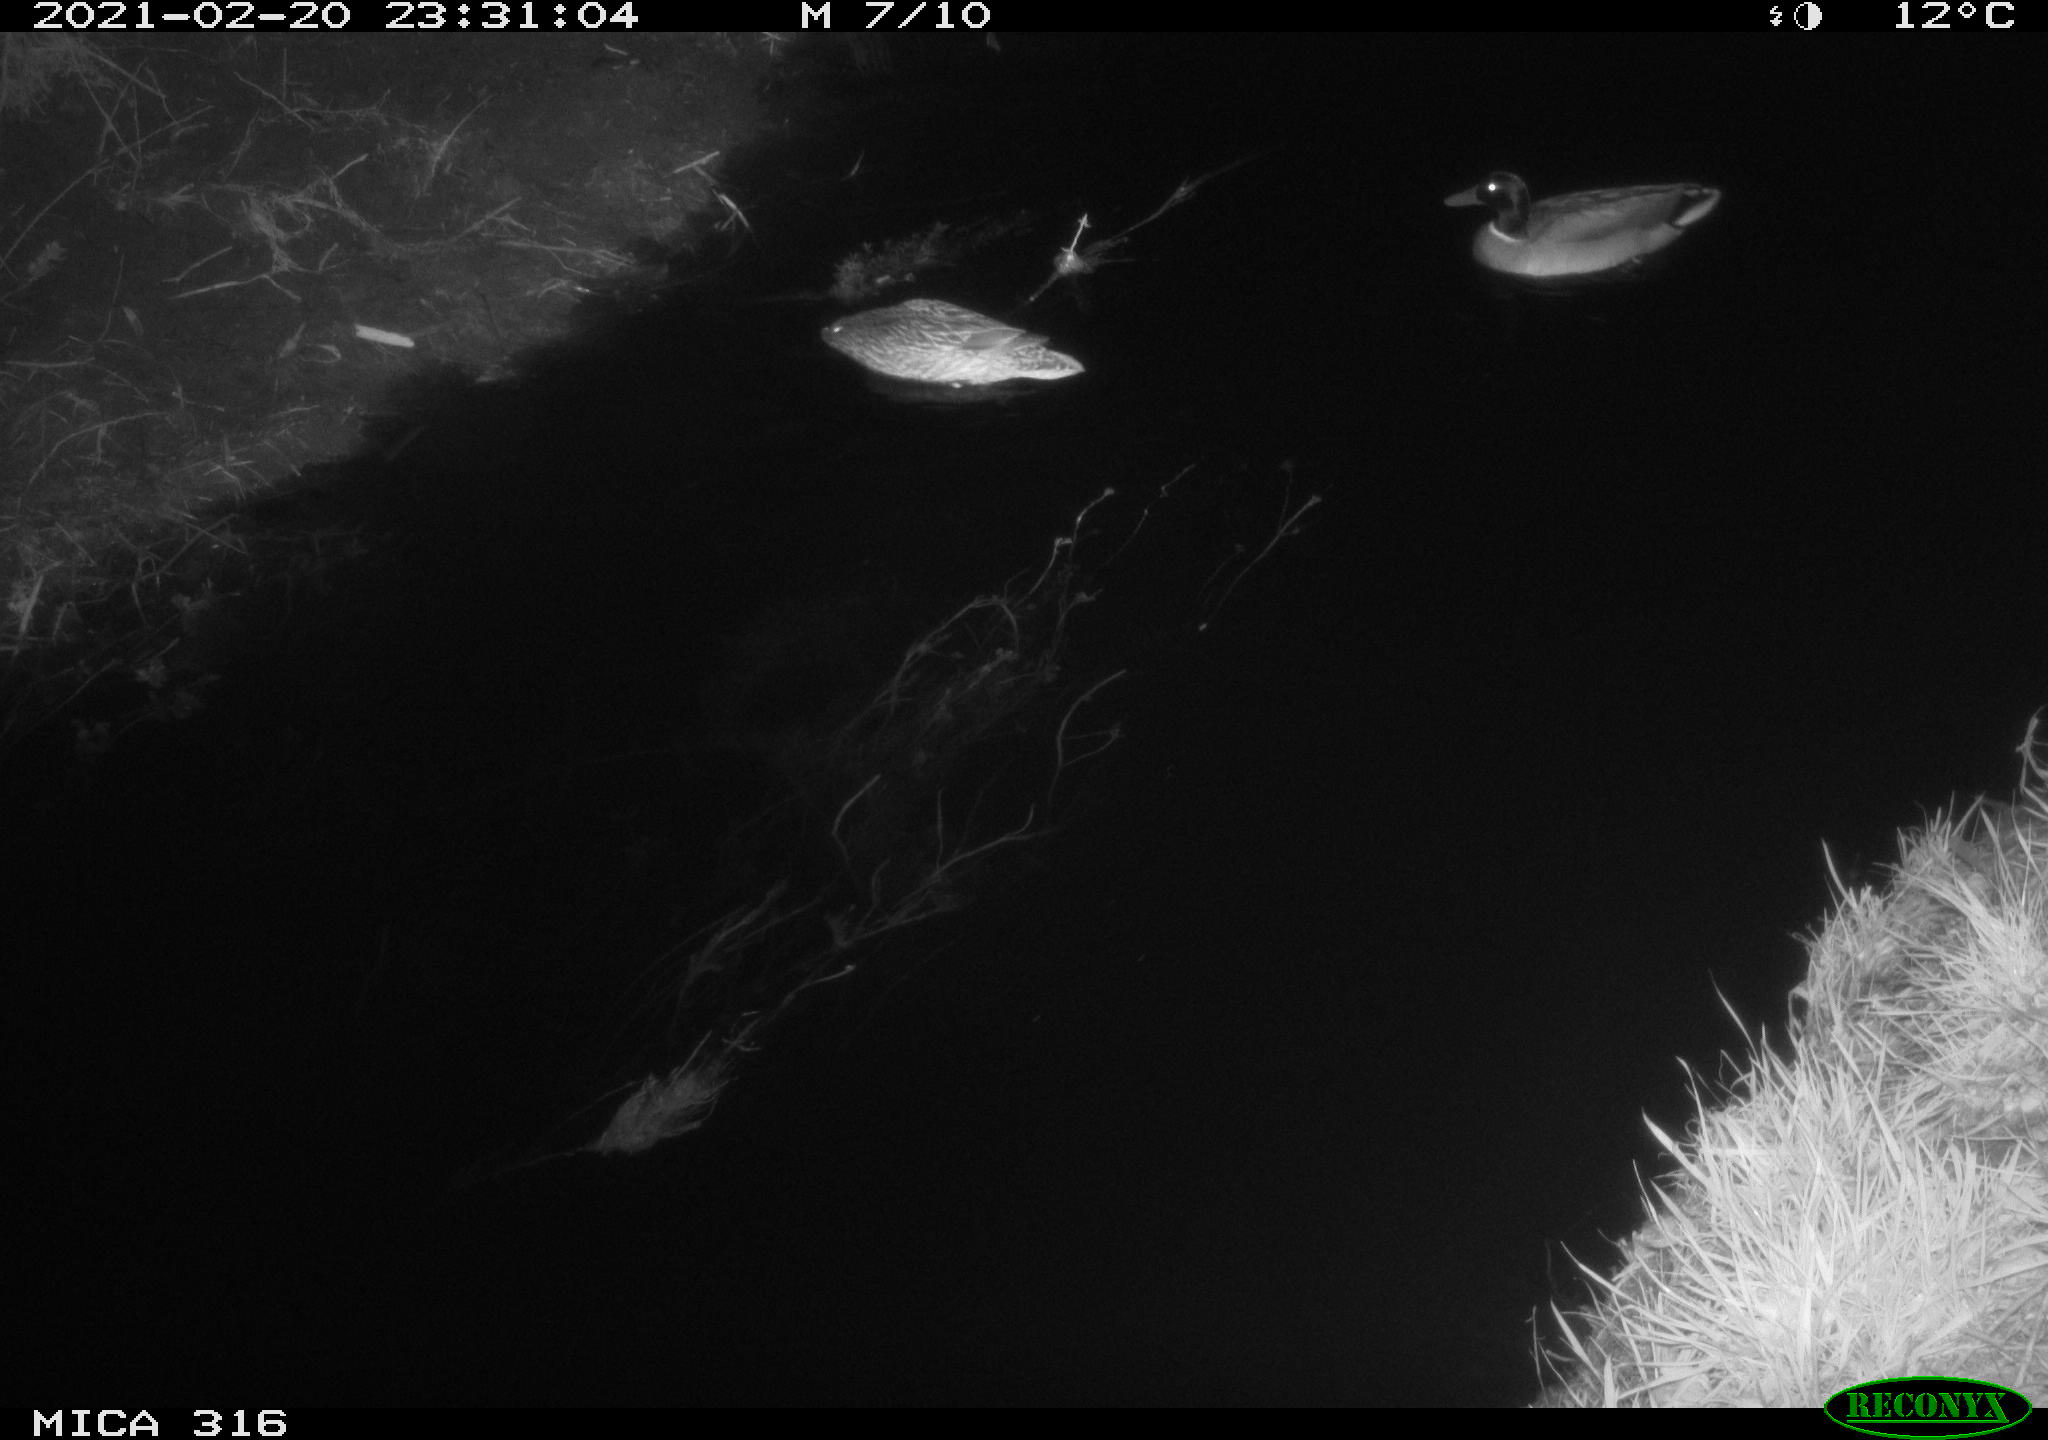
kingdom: Animalia
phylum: Chordata
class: Aves
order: Anseriformes
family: Anatidae
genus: Anas
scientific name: Anas platyrhynchos
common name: Mallard
